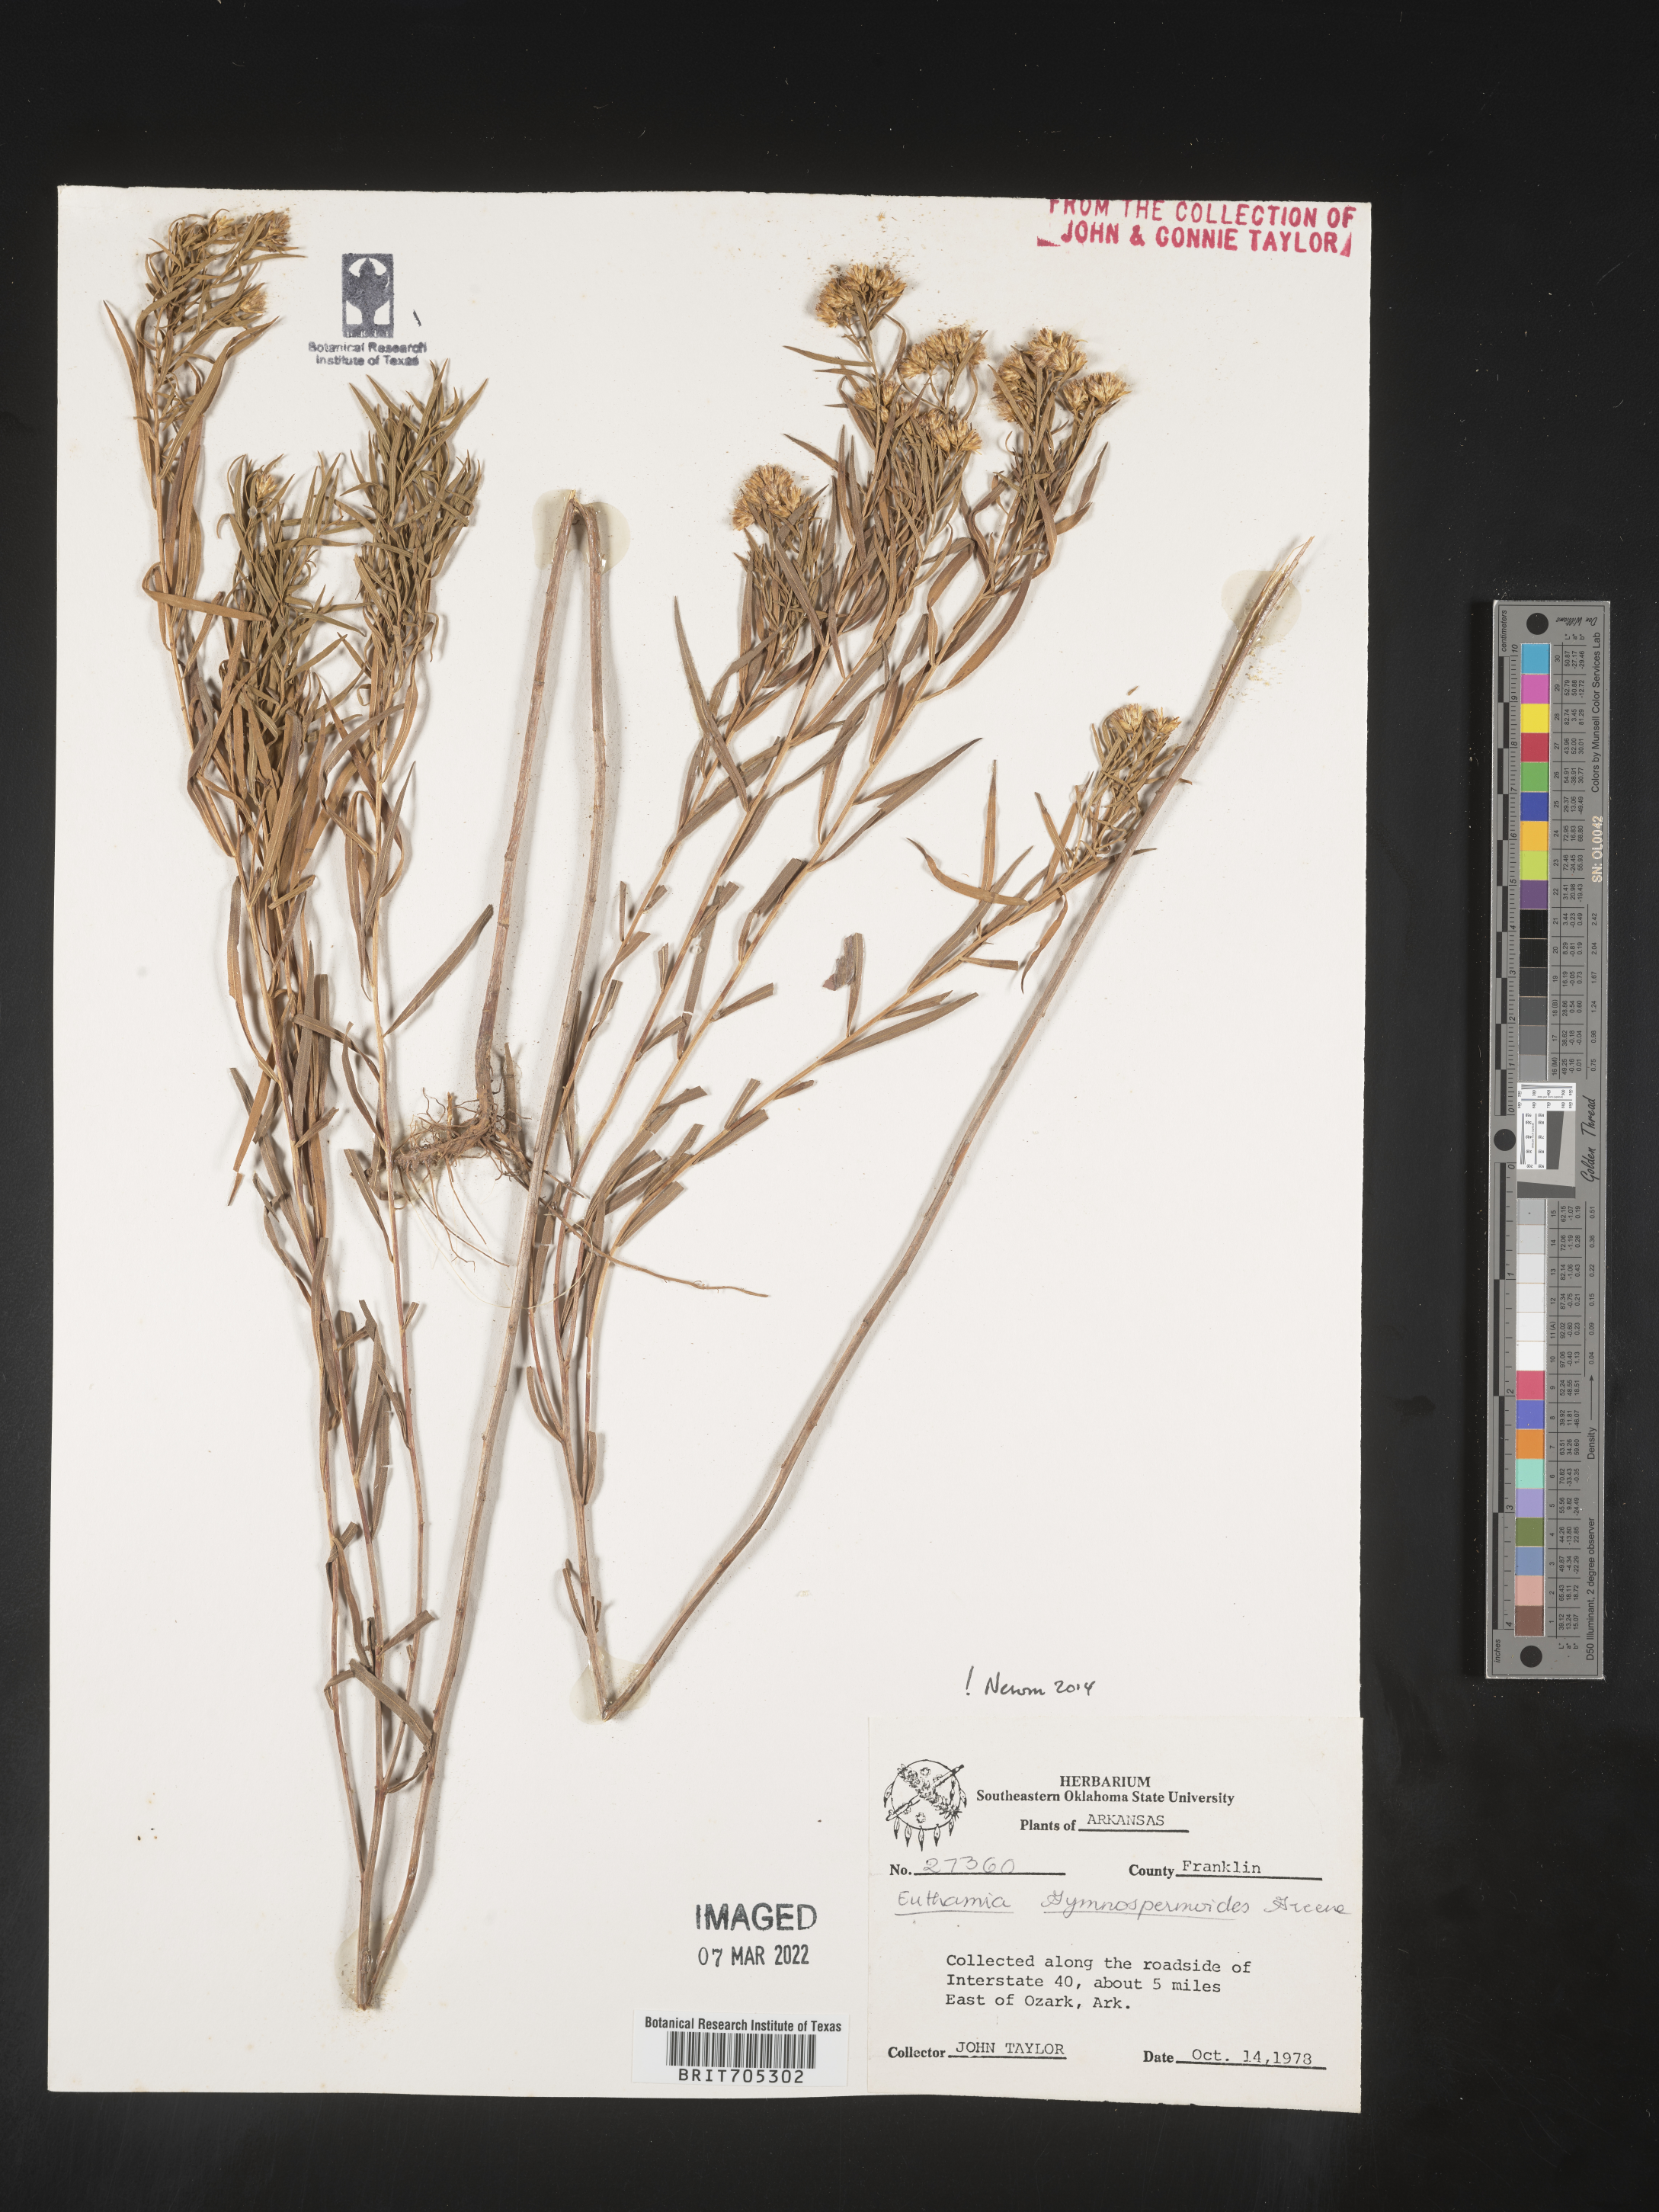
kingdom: Plantae
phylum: Tracheophyta
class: Magnoliopsida
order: Asterales
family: Asteraceae
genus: Euthamia
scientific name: Euthamia gymnospermoides
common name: Great plains goldentop
